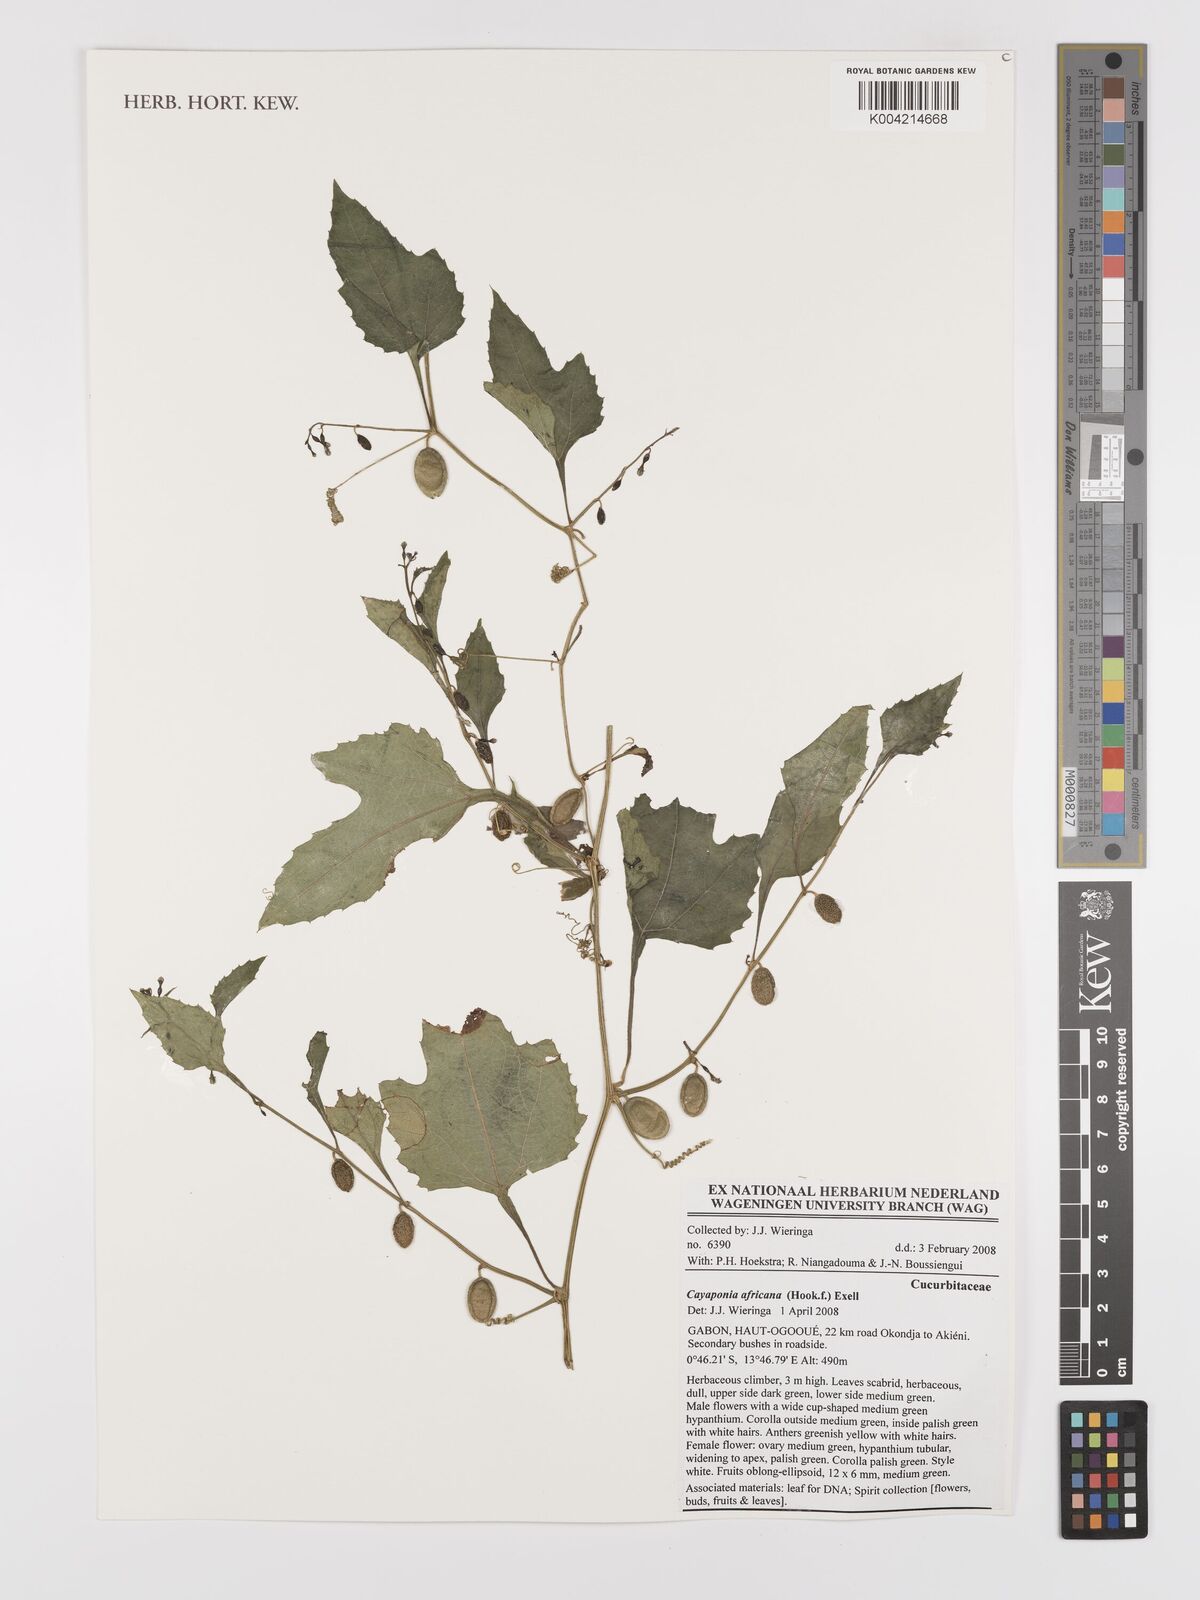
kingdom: Plantae
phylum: Tracheophyta
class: Magnoliopsida
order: Cucurbitales
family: Cucurbitaceae
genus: Cayaponia
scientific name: Cayaponia africana
